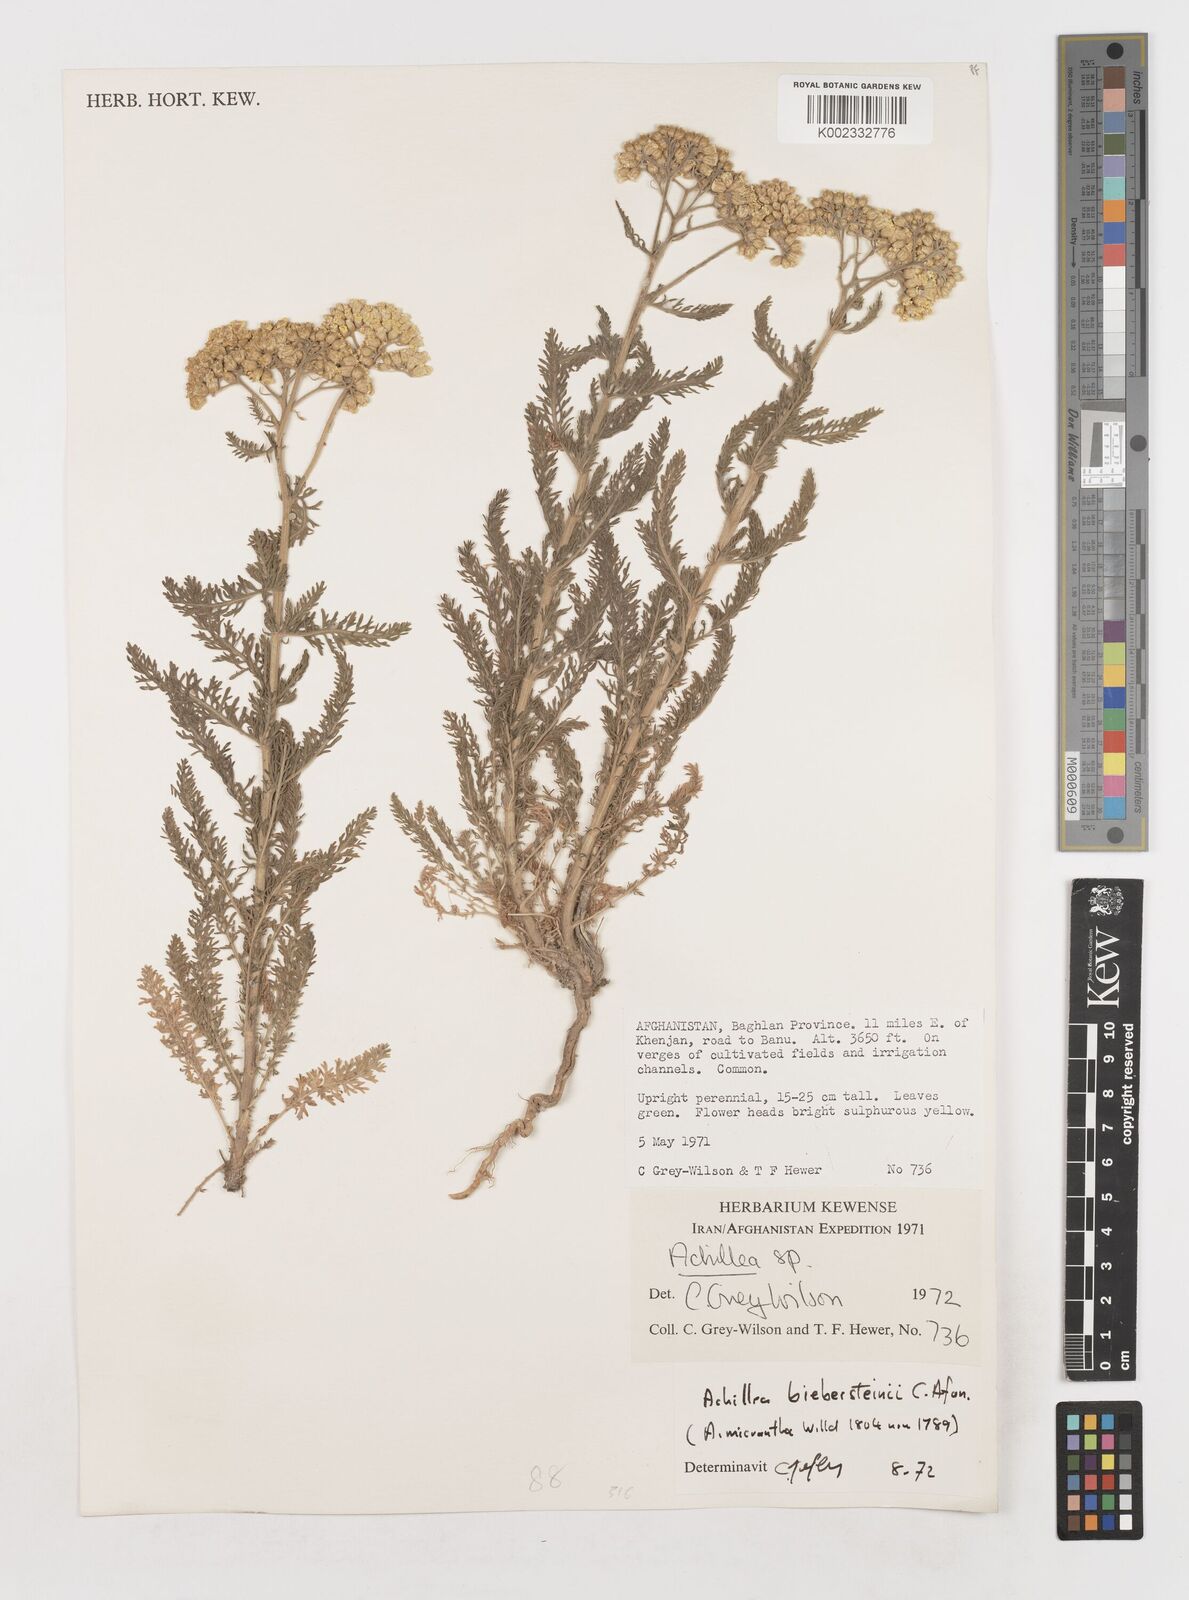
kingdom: Plantae
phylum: Tracheophyta
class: Magnoliopsida
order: Asterales
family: Asteraceae
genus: Achillea
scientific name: Achillea arabica
